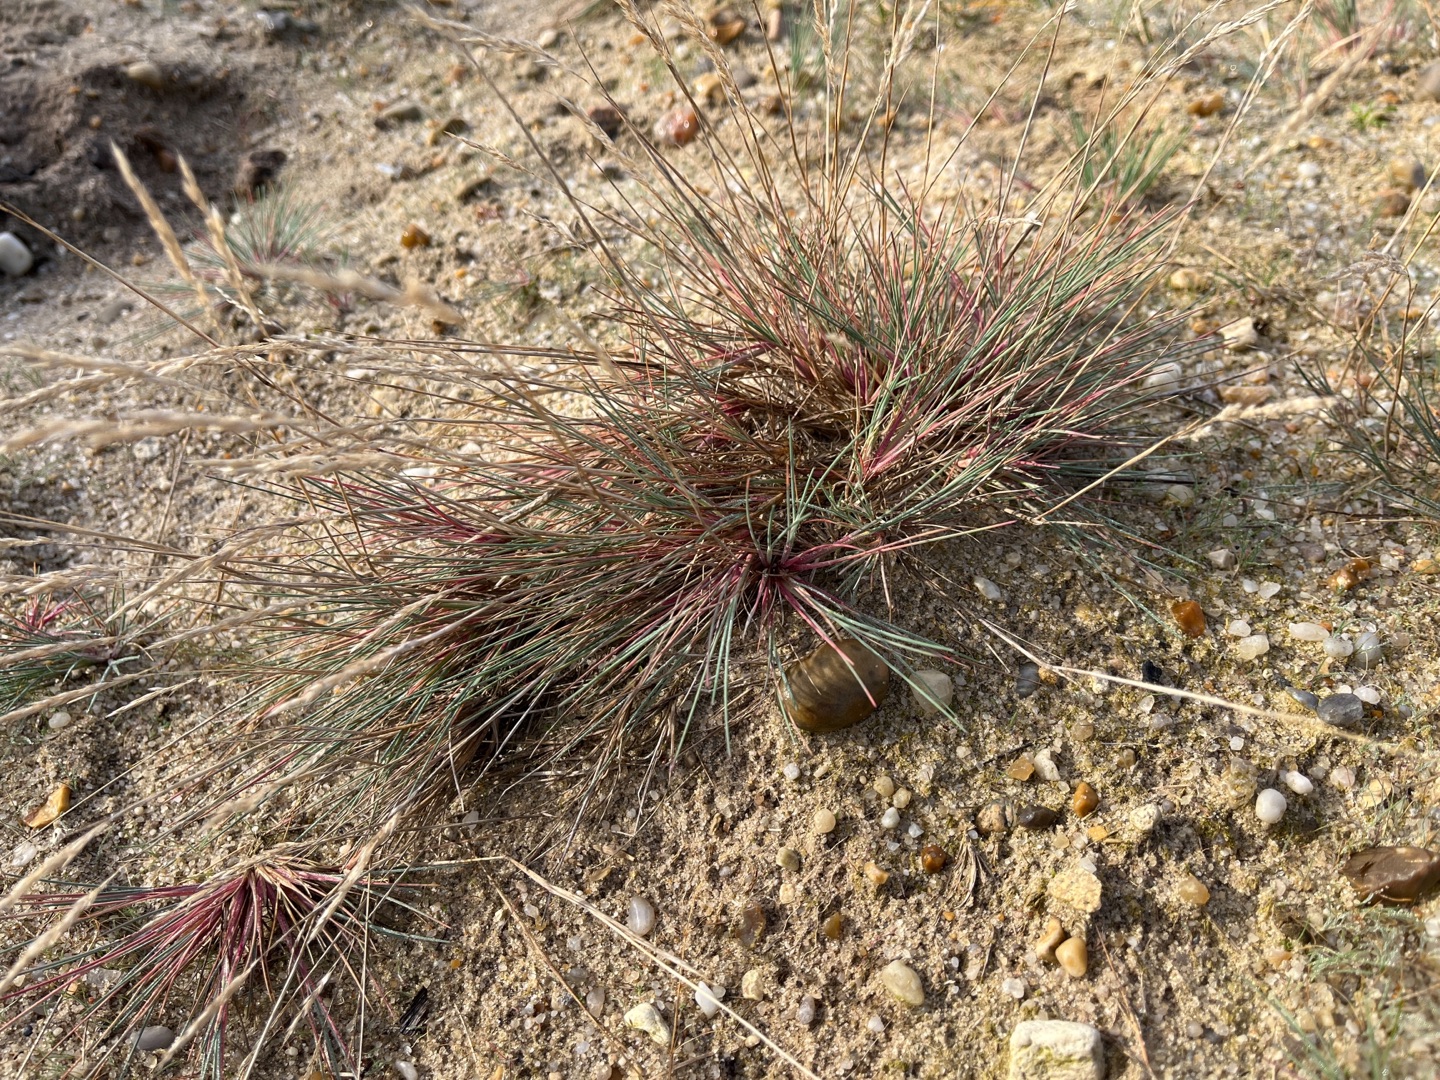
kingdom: Plantae
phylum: Tracheophyta
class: Liliopsida
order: Poales
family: Poaceae
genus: Corynephorus
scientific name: Corynephorus canescens
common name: Sandskæg
